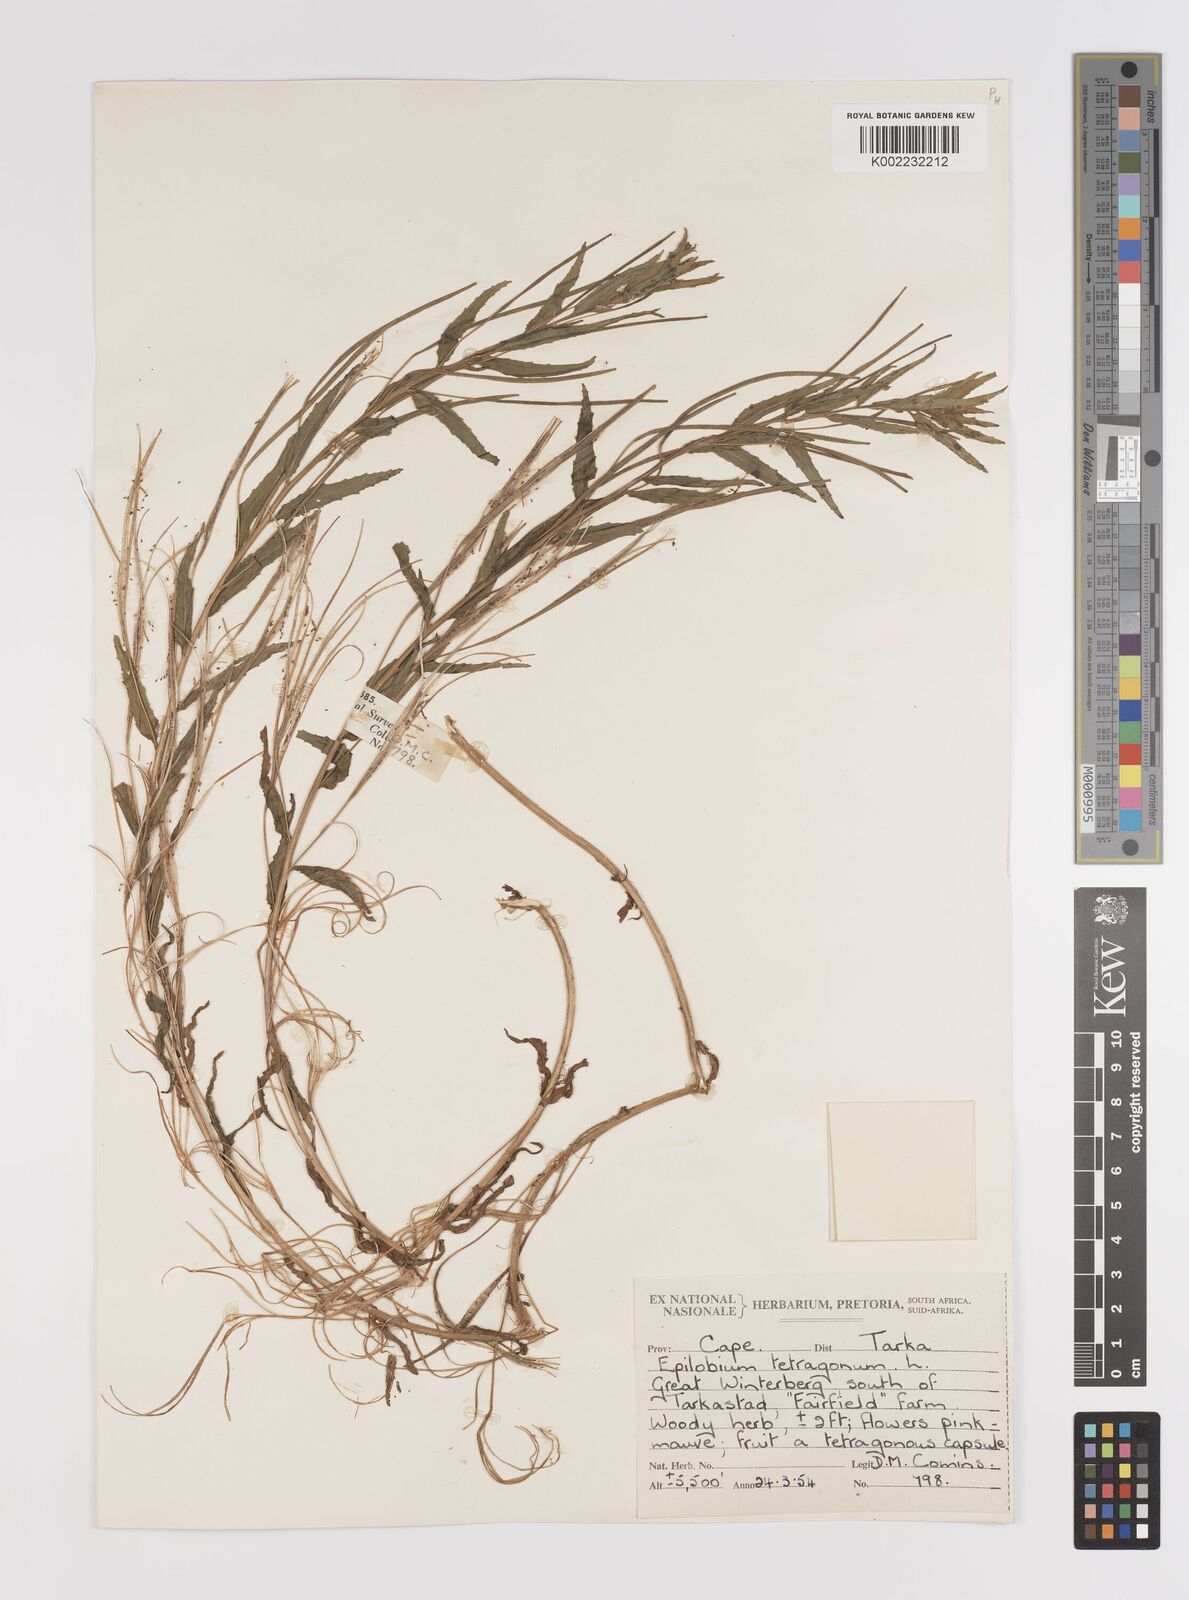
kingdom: Plantae
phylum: Tracheophyta
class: Magnoliopsida
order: Myrtales
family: Onagraceae
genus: Epilobium
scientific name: Epilobium tetragonum
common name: Square-stemmed willowherb
